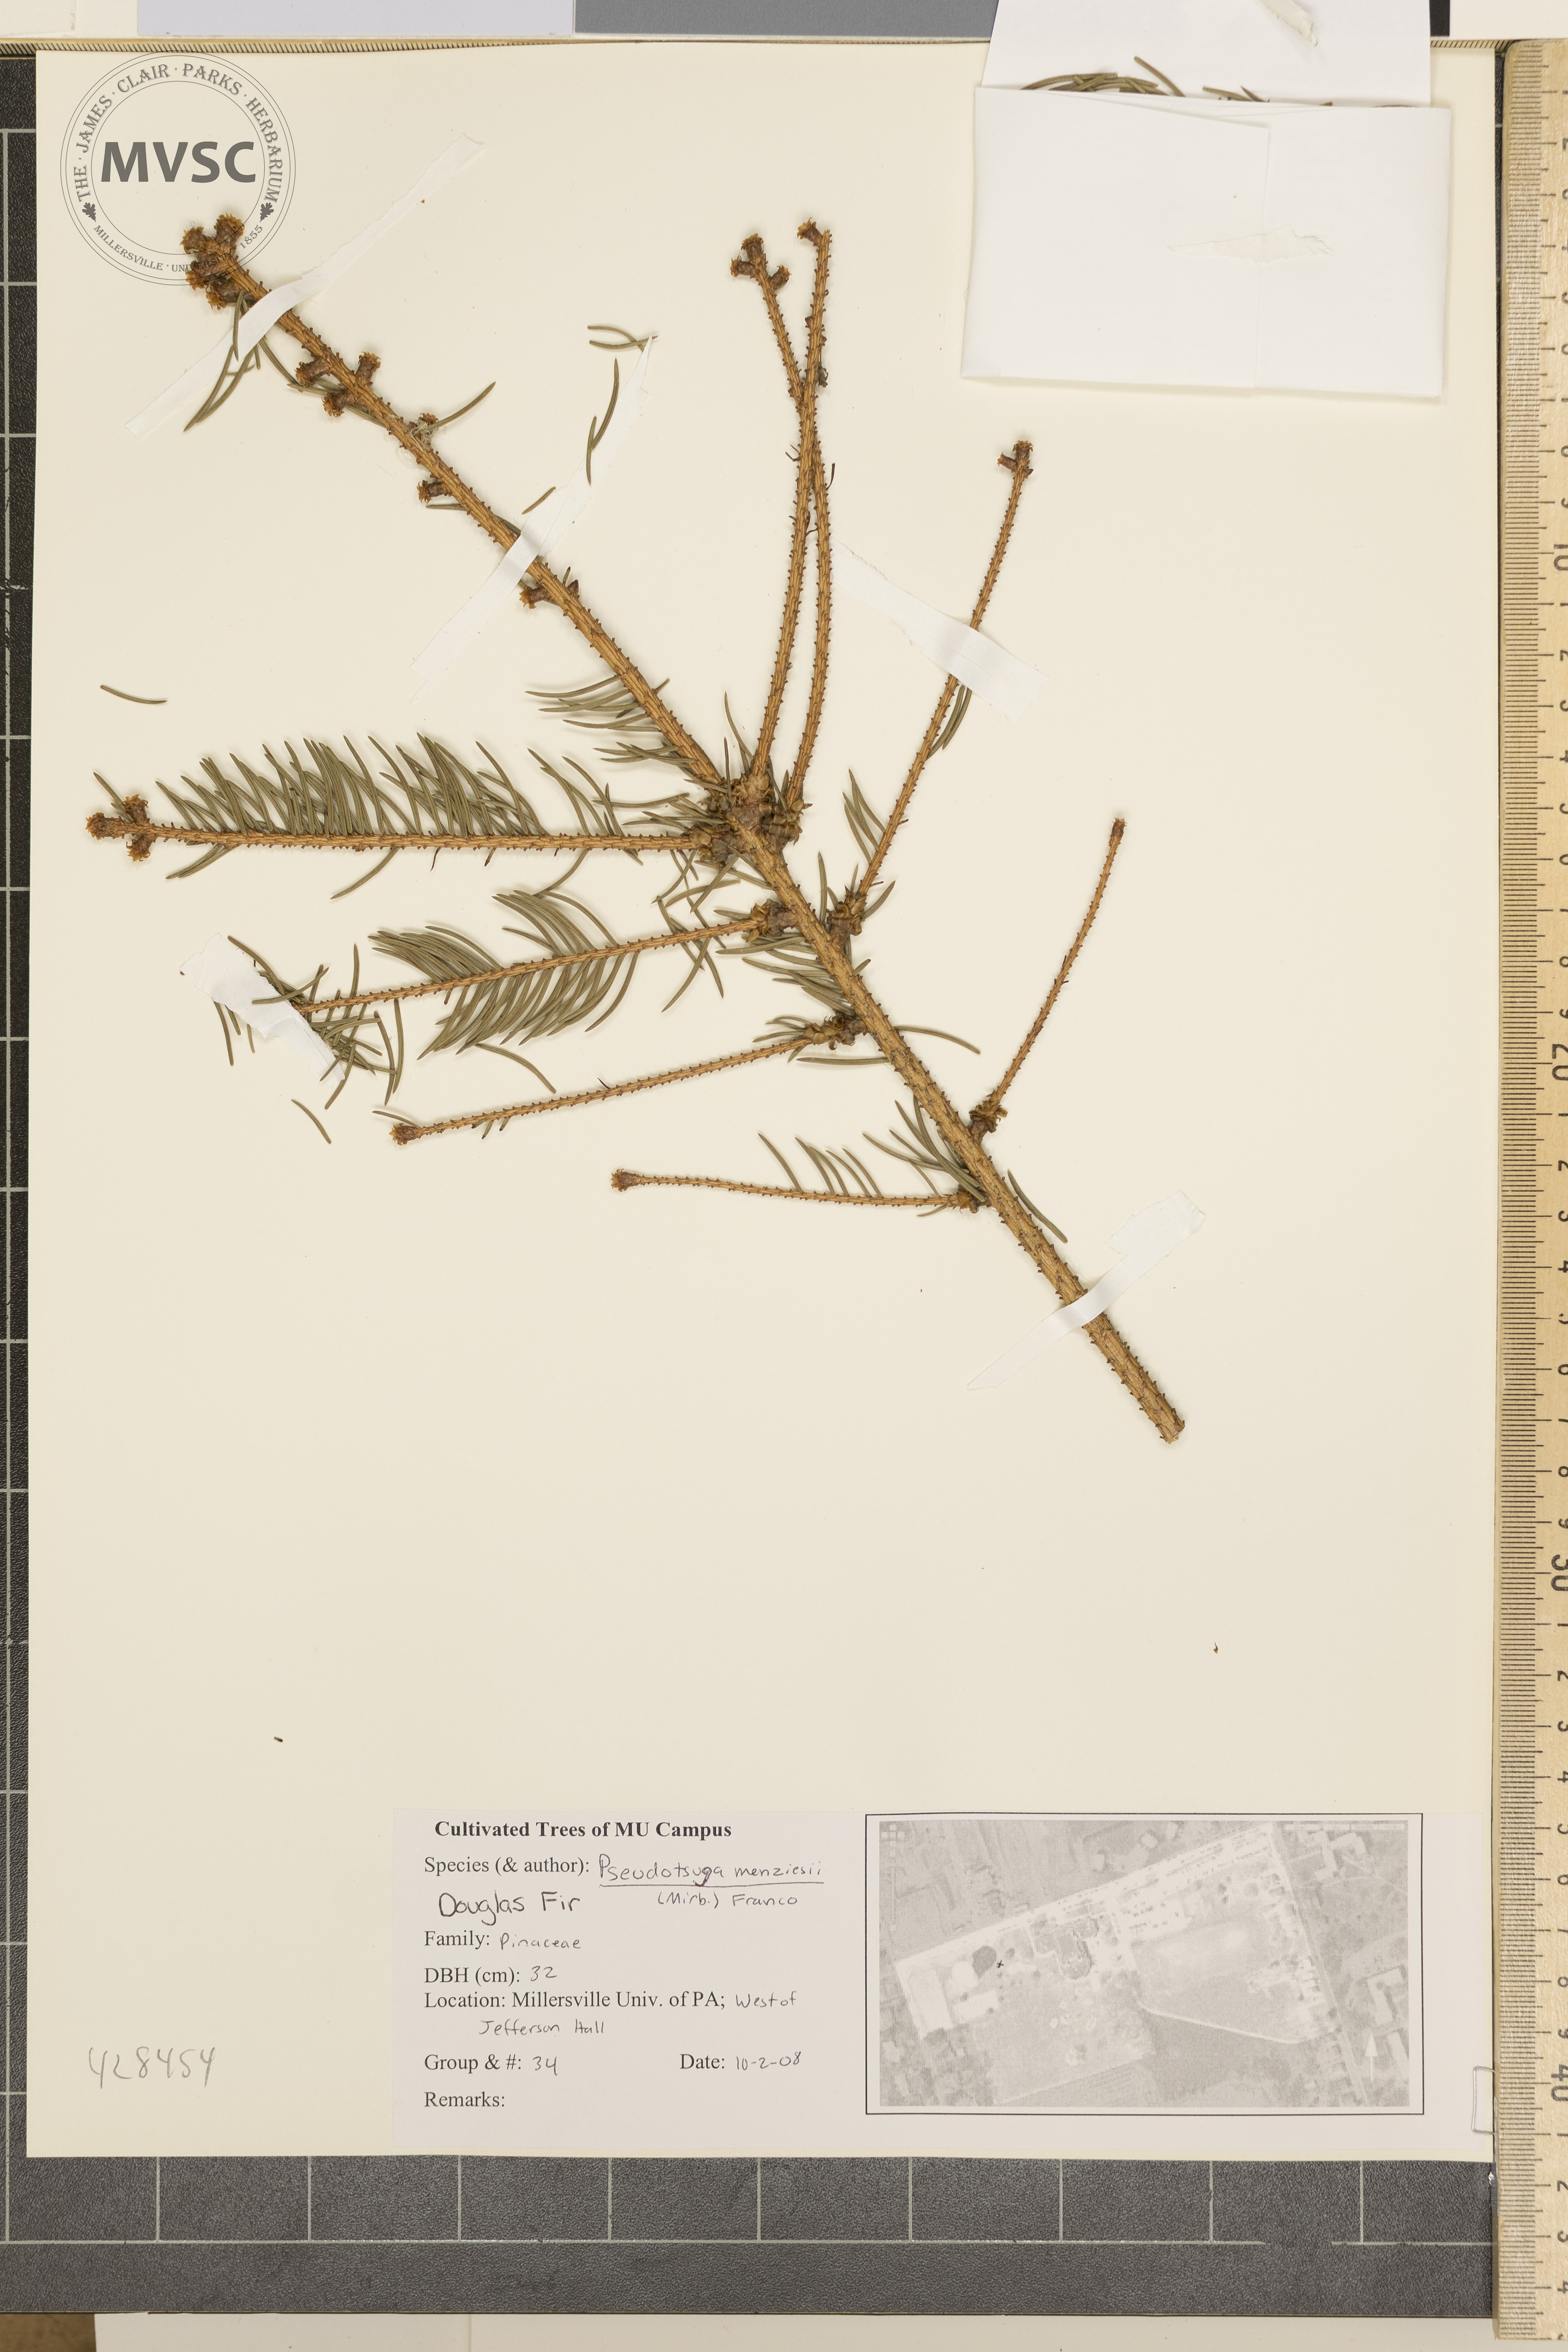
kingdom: Plantae
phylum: Tracheophyta
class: Pinopsida
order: Pinales
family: Pinaceae
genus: Picea
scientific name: Picea abies
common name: Norway spruce
